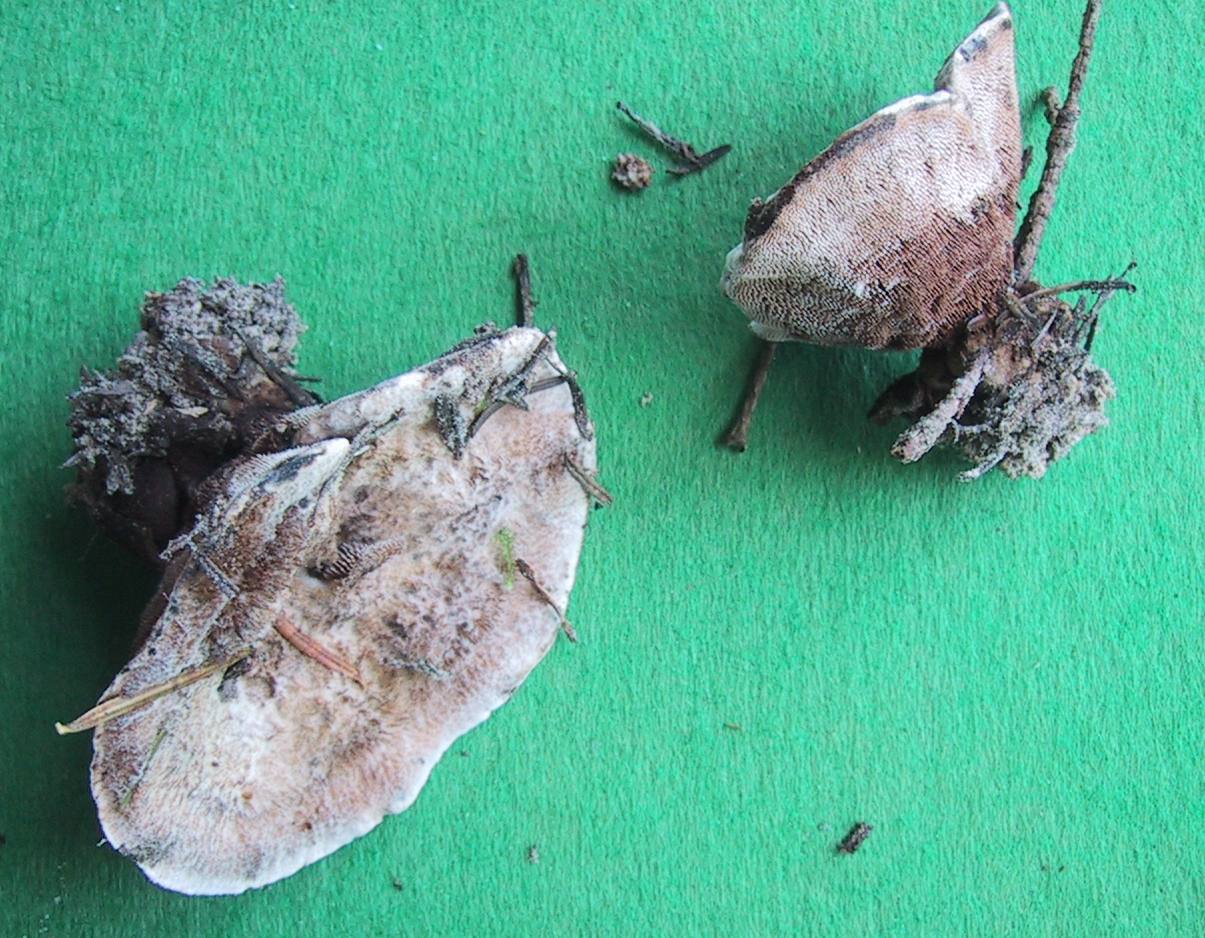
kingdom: Fungi
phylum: Basidiomycota
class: Agaricomycetes
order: Thelephorales
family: Bankeraceae
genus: Hydnellum
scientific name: Hydnellum caeruleum
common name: blålig korkpigsvamp
